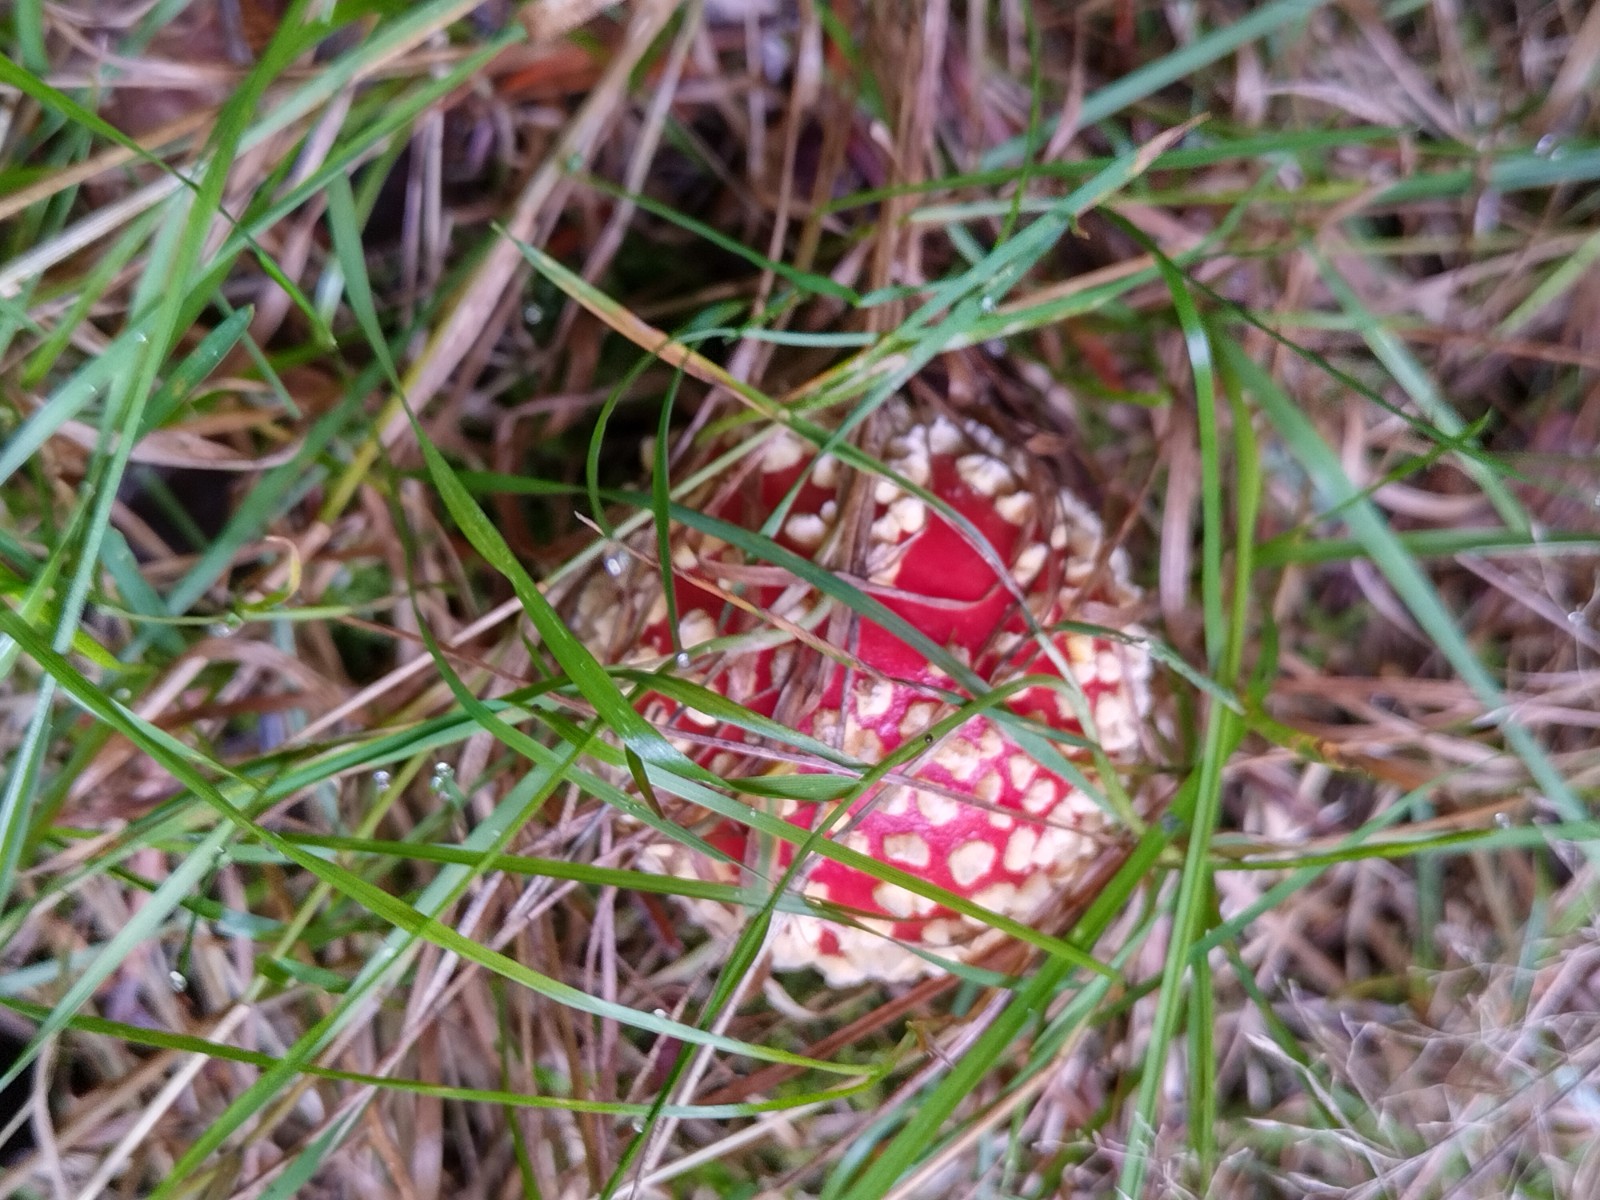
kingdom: Fungi
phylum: Basidiomycota
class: Agaricomycetes
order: Agaricales
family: Amanitaceae
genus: Amanita
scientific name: Amanita muscaria
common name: rød fluesvamp
